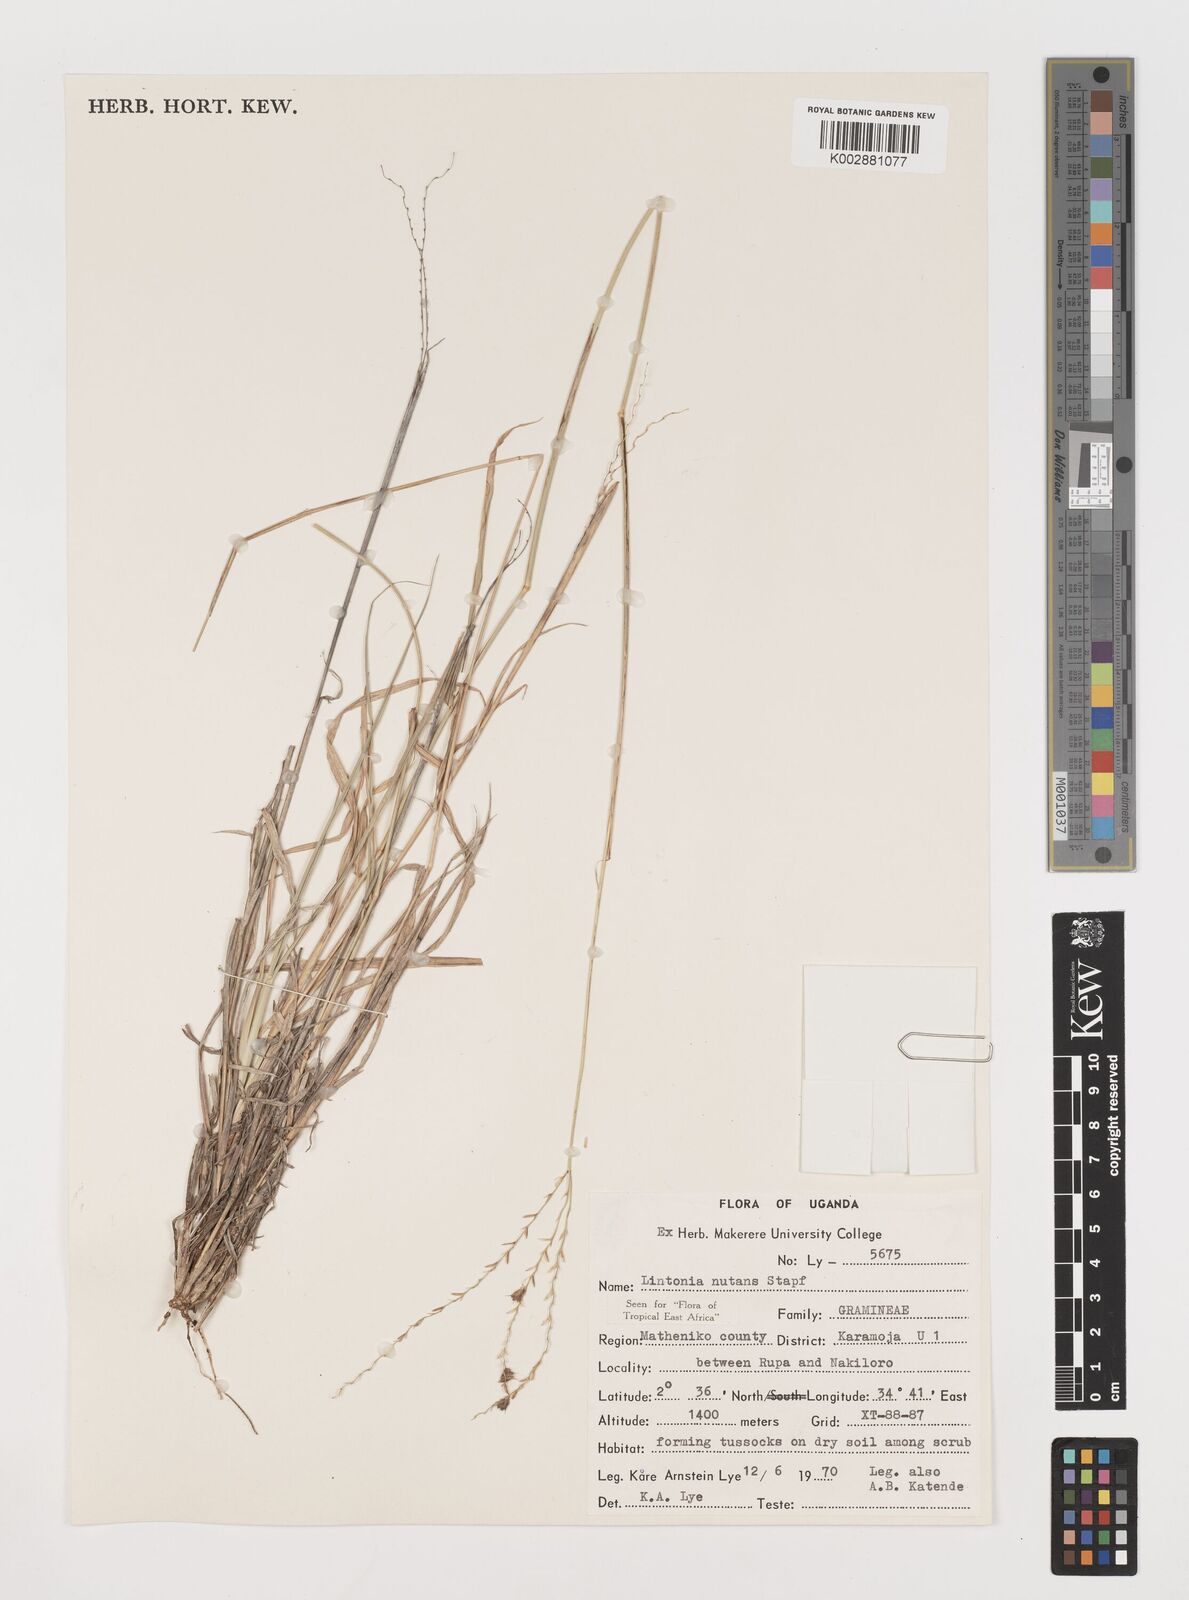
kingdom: Plantae
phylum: Tracheophyta
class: Liliopsida
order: Poales
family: Poaceae
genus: Chloris
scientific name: Chloris nutans
